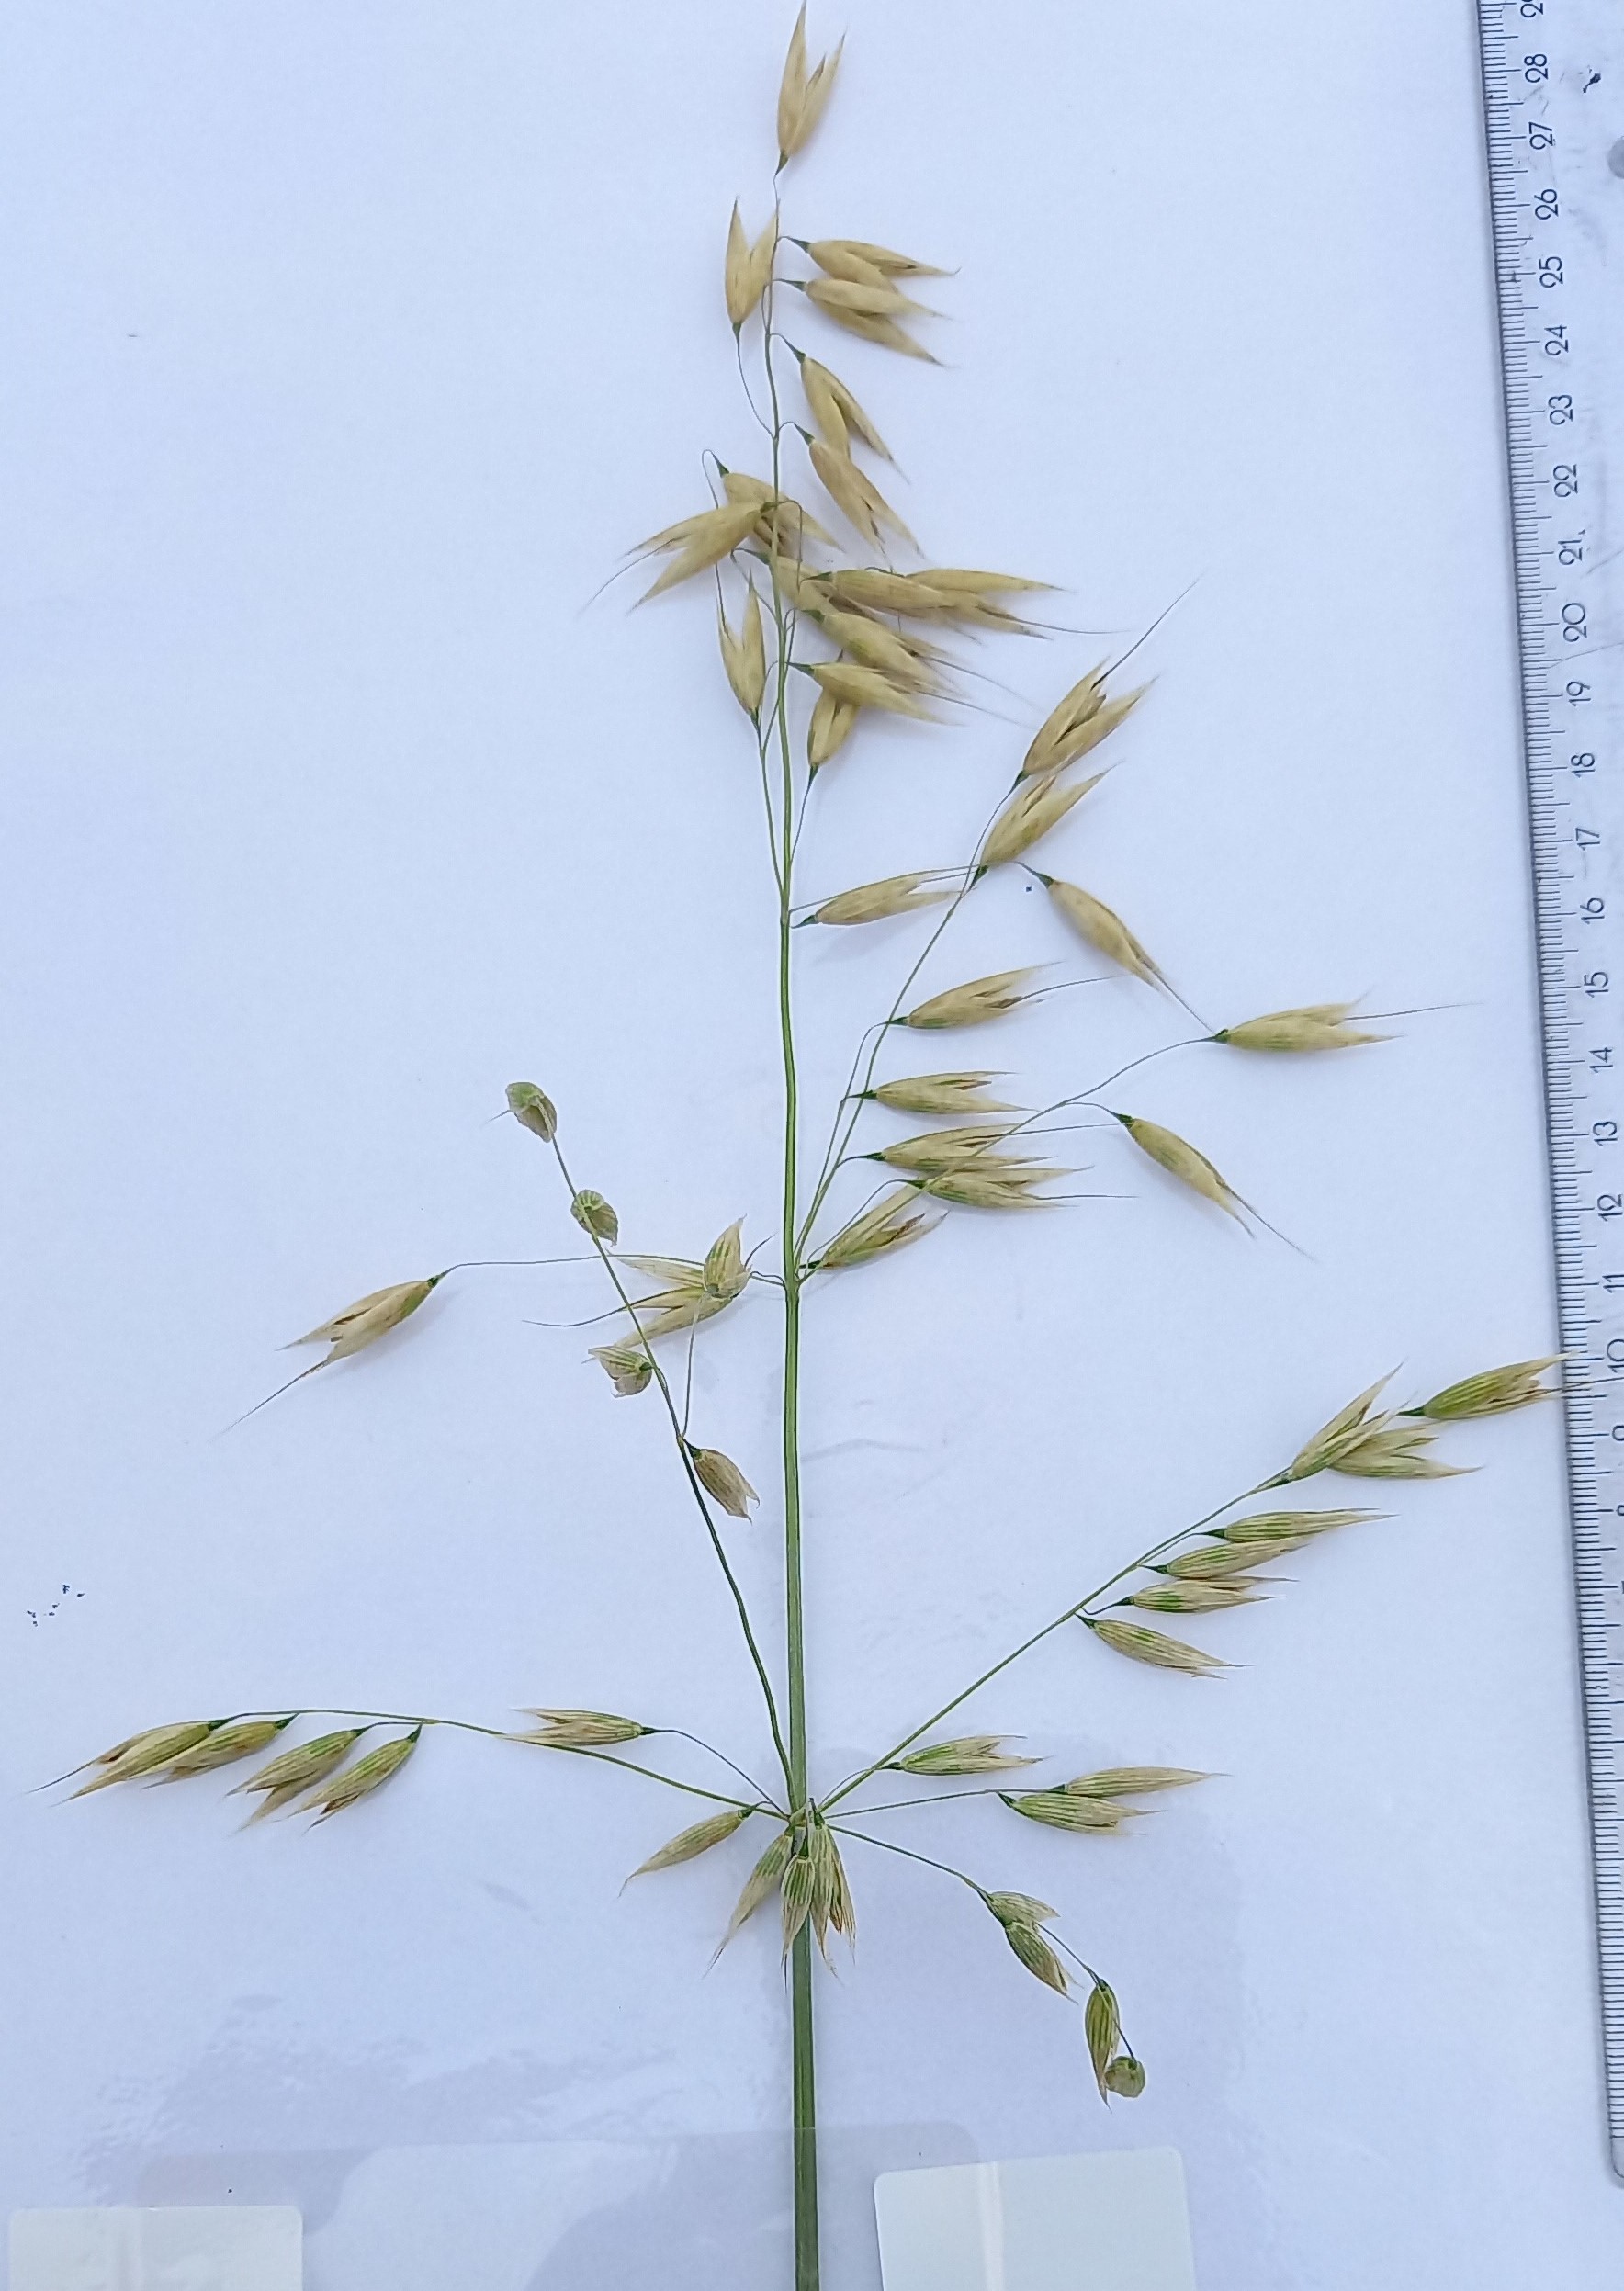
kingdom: Plantae
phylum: Tracheophyta
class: Liliopsida
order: Poales
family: Poaceae
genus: Avena
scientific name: Avena sativa
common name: Oat
